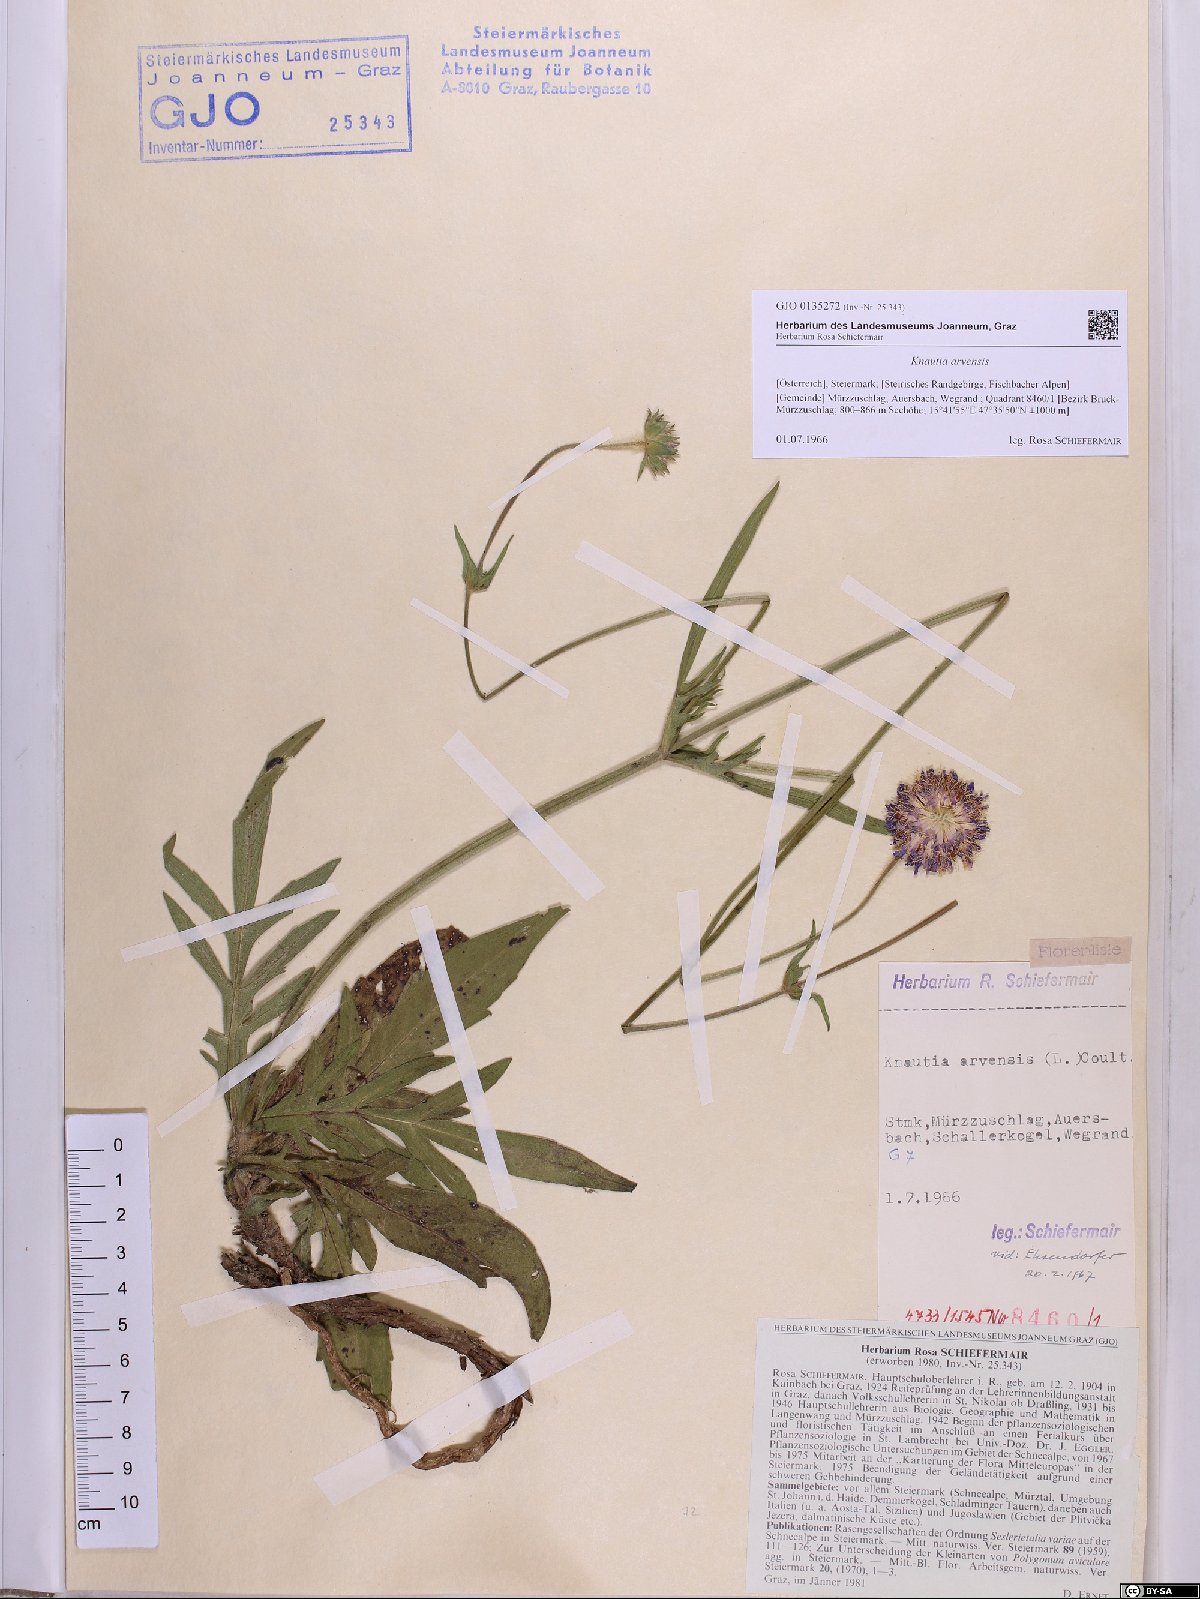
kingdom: Plantae
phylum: Tracheophyta
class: Magnoliopsida
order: Dipsacales
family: Caprifoliaceae
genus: Knautia
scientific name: Knautia arvensis
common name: Field scabiosa
